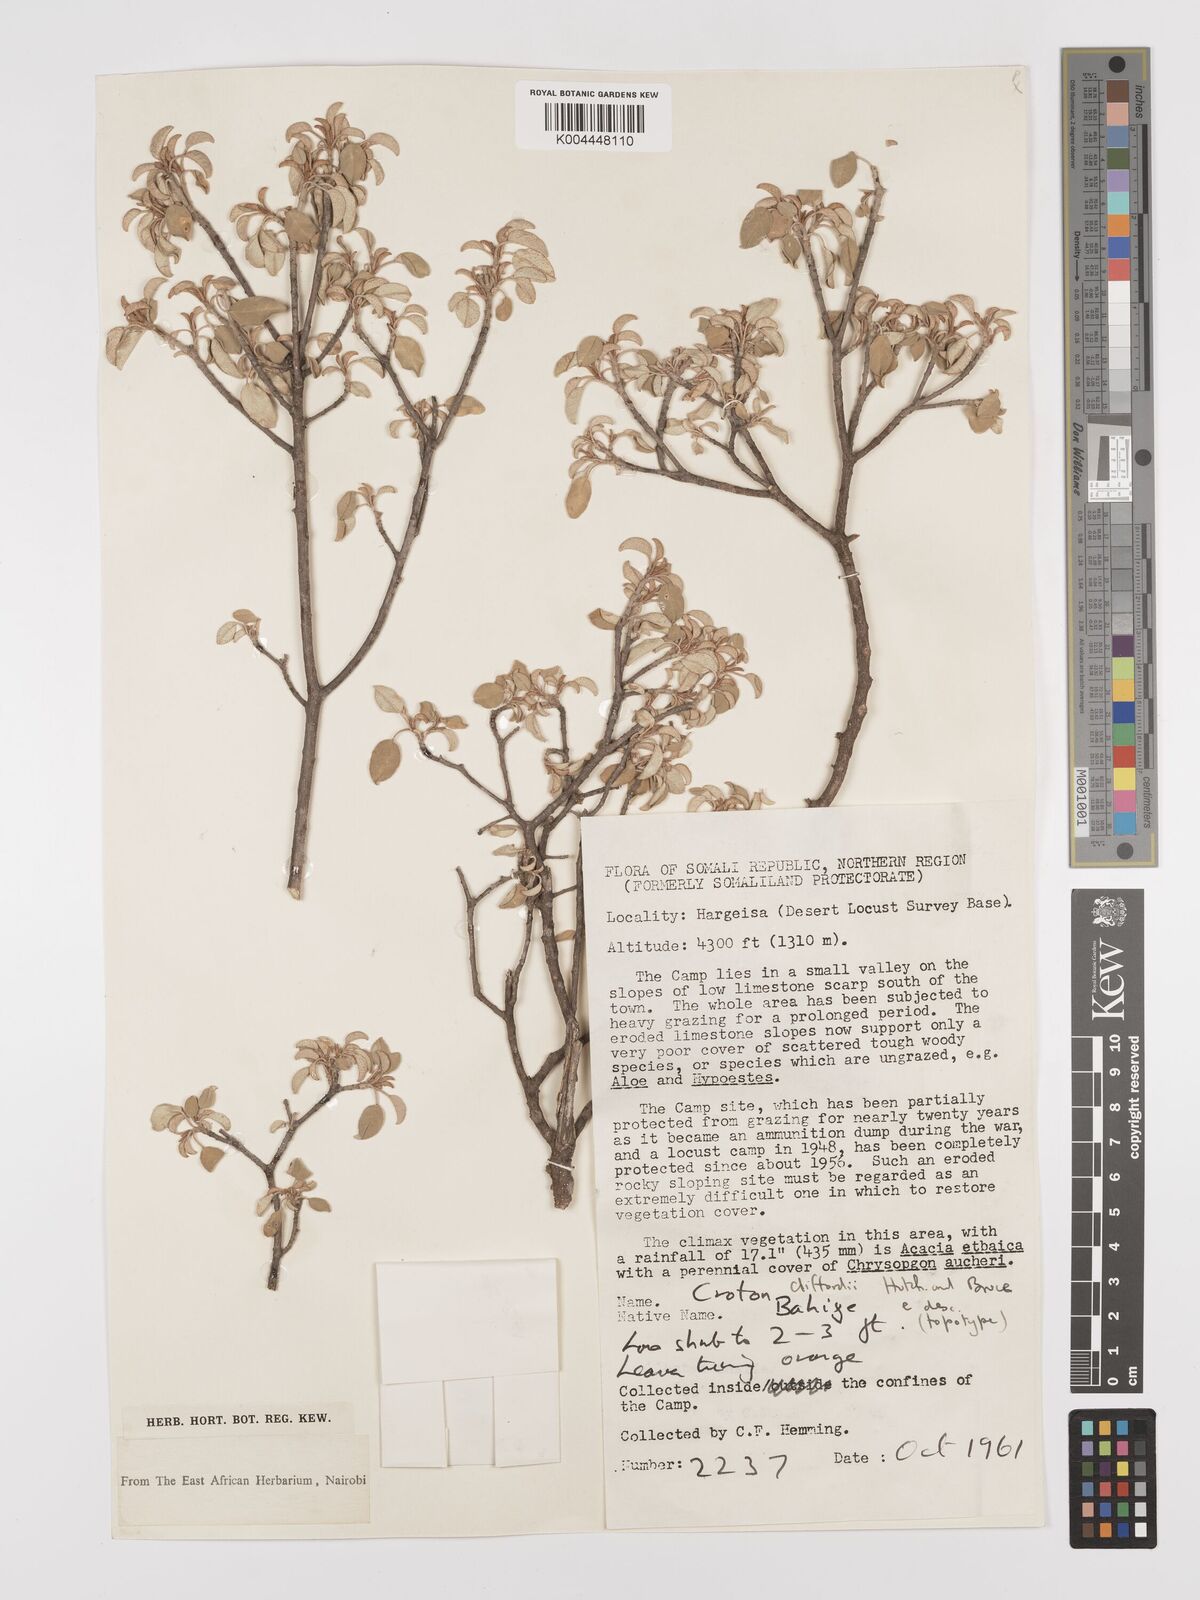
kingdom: Plantae
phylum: Tracheophyta
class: Magnoliopsida
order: Malpighiales
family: Euphorbiaceae
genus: Croton
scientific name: Croton cliffordii
